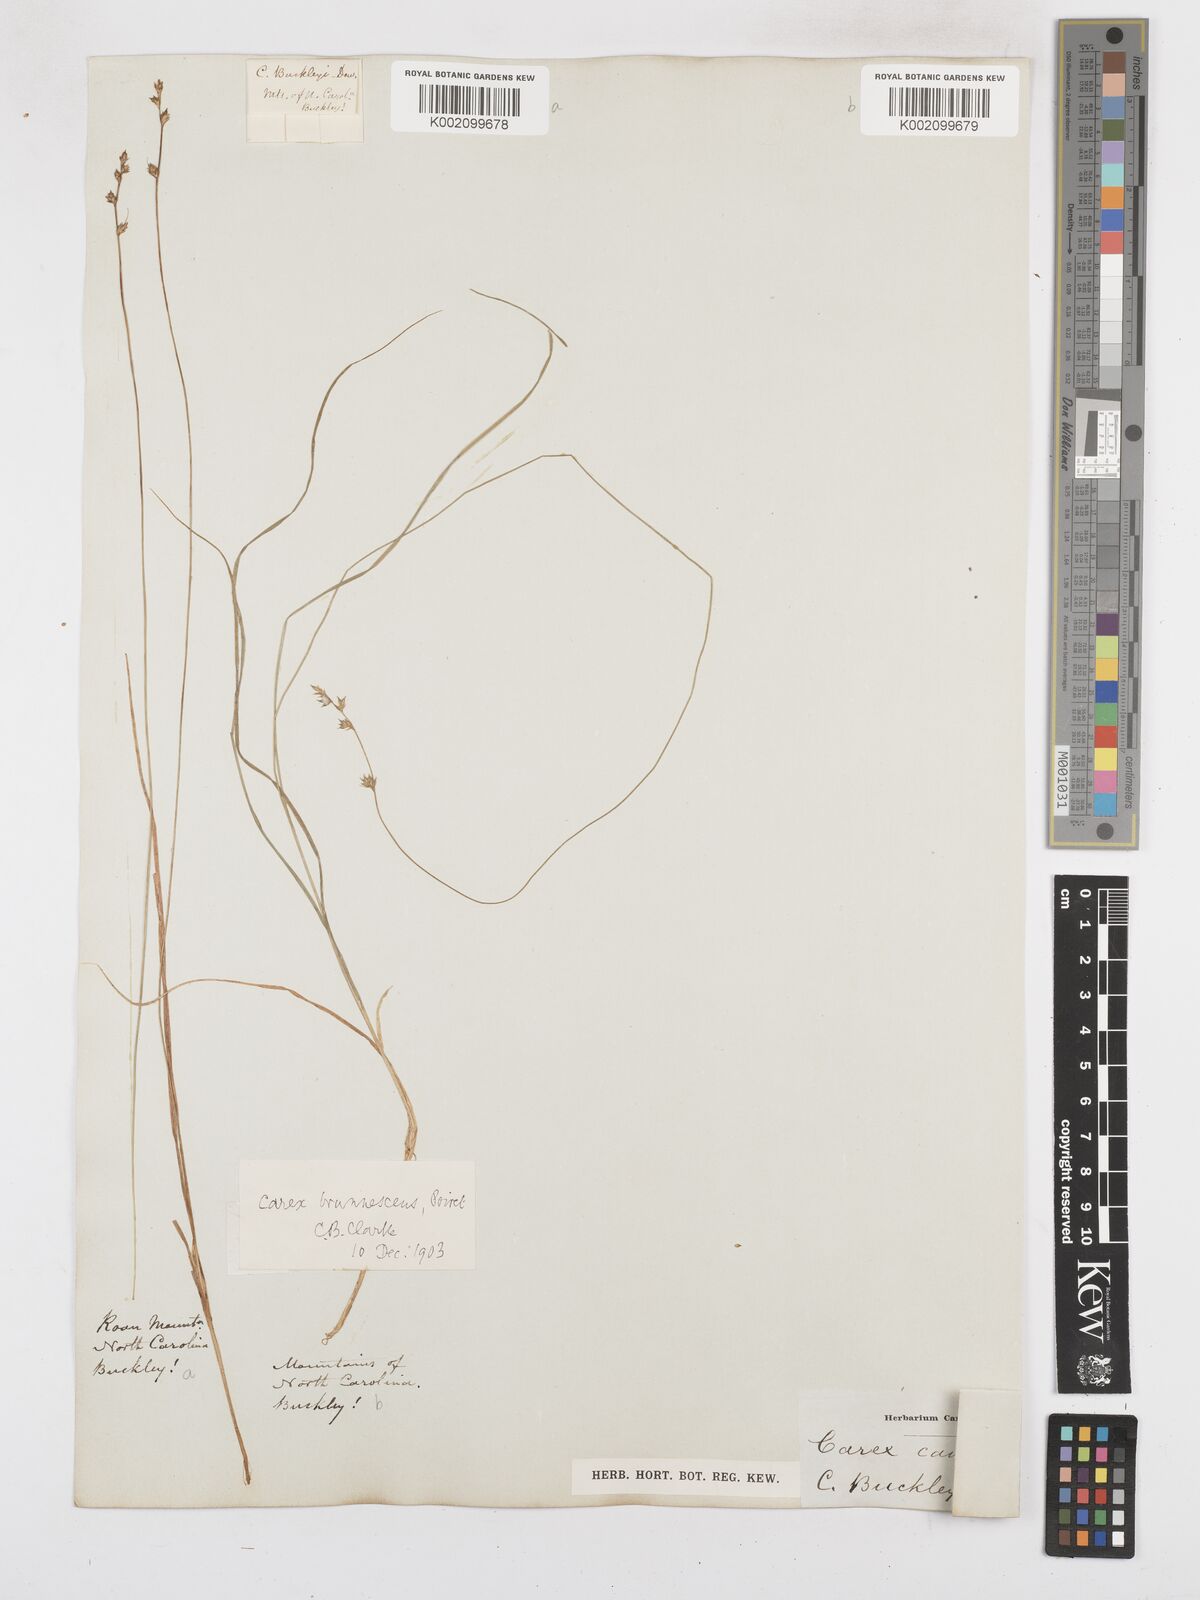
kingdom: Plantae
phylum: Tracheophyta
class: Liliopsida
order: Poales
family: Cyperaceae
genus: Carex
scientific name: Carex brunnescens
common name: Brown sedge
